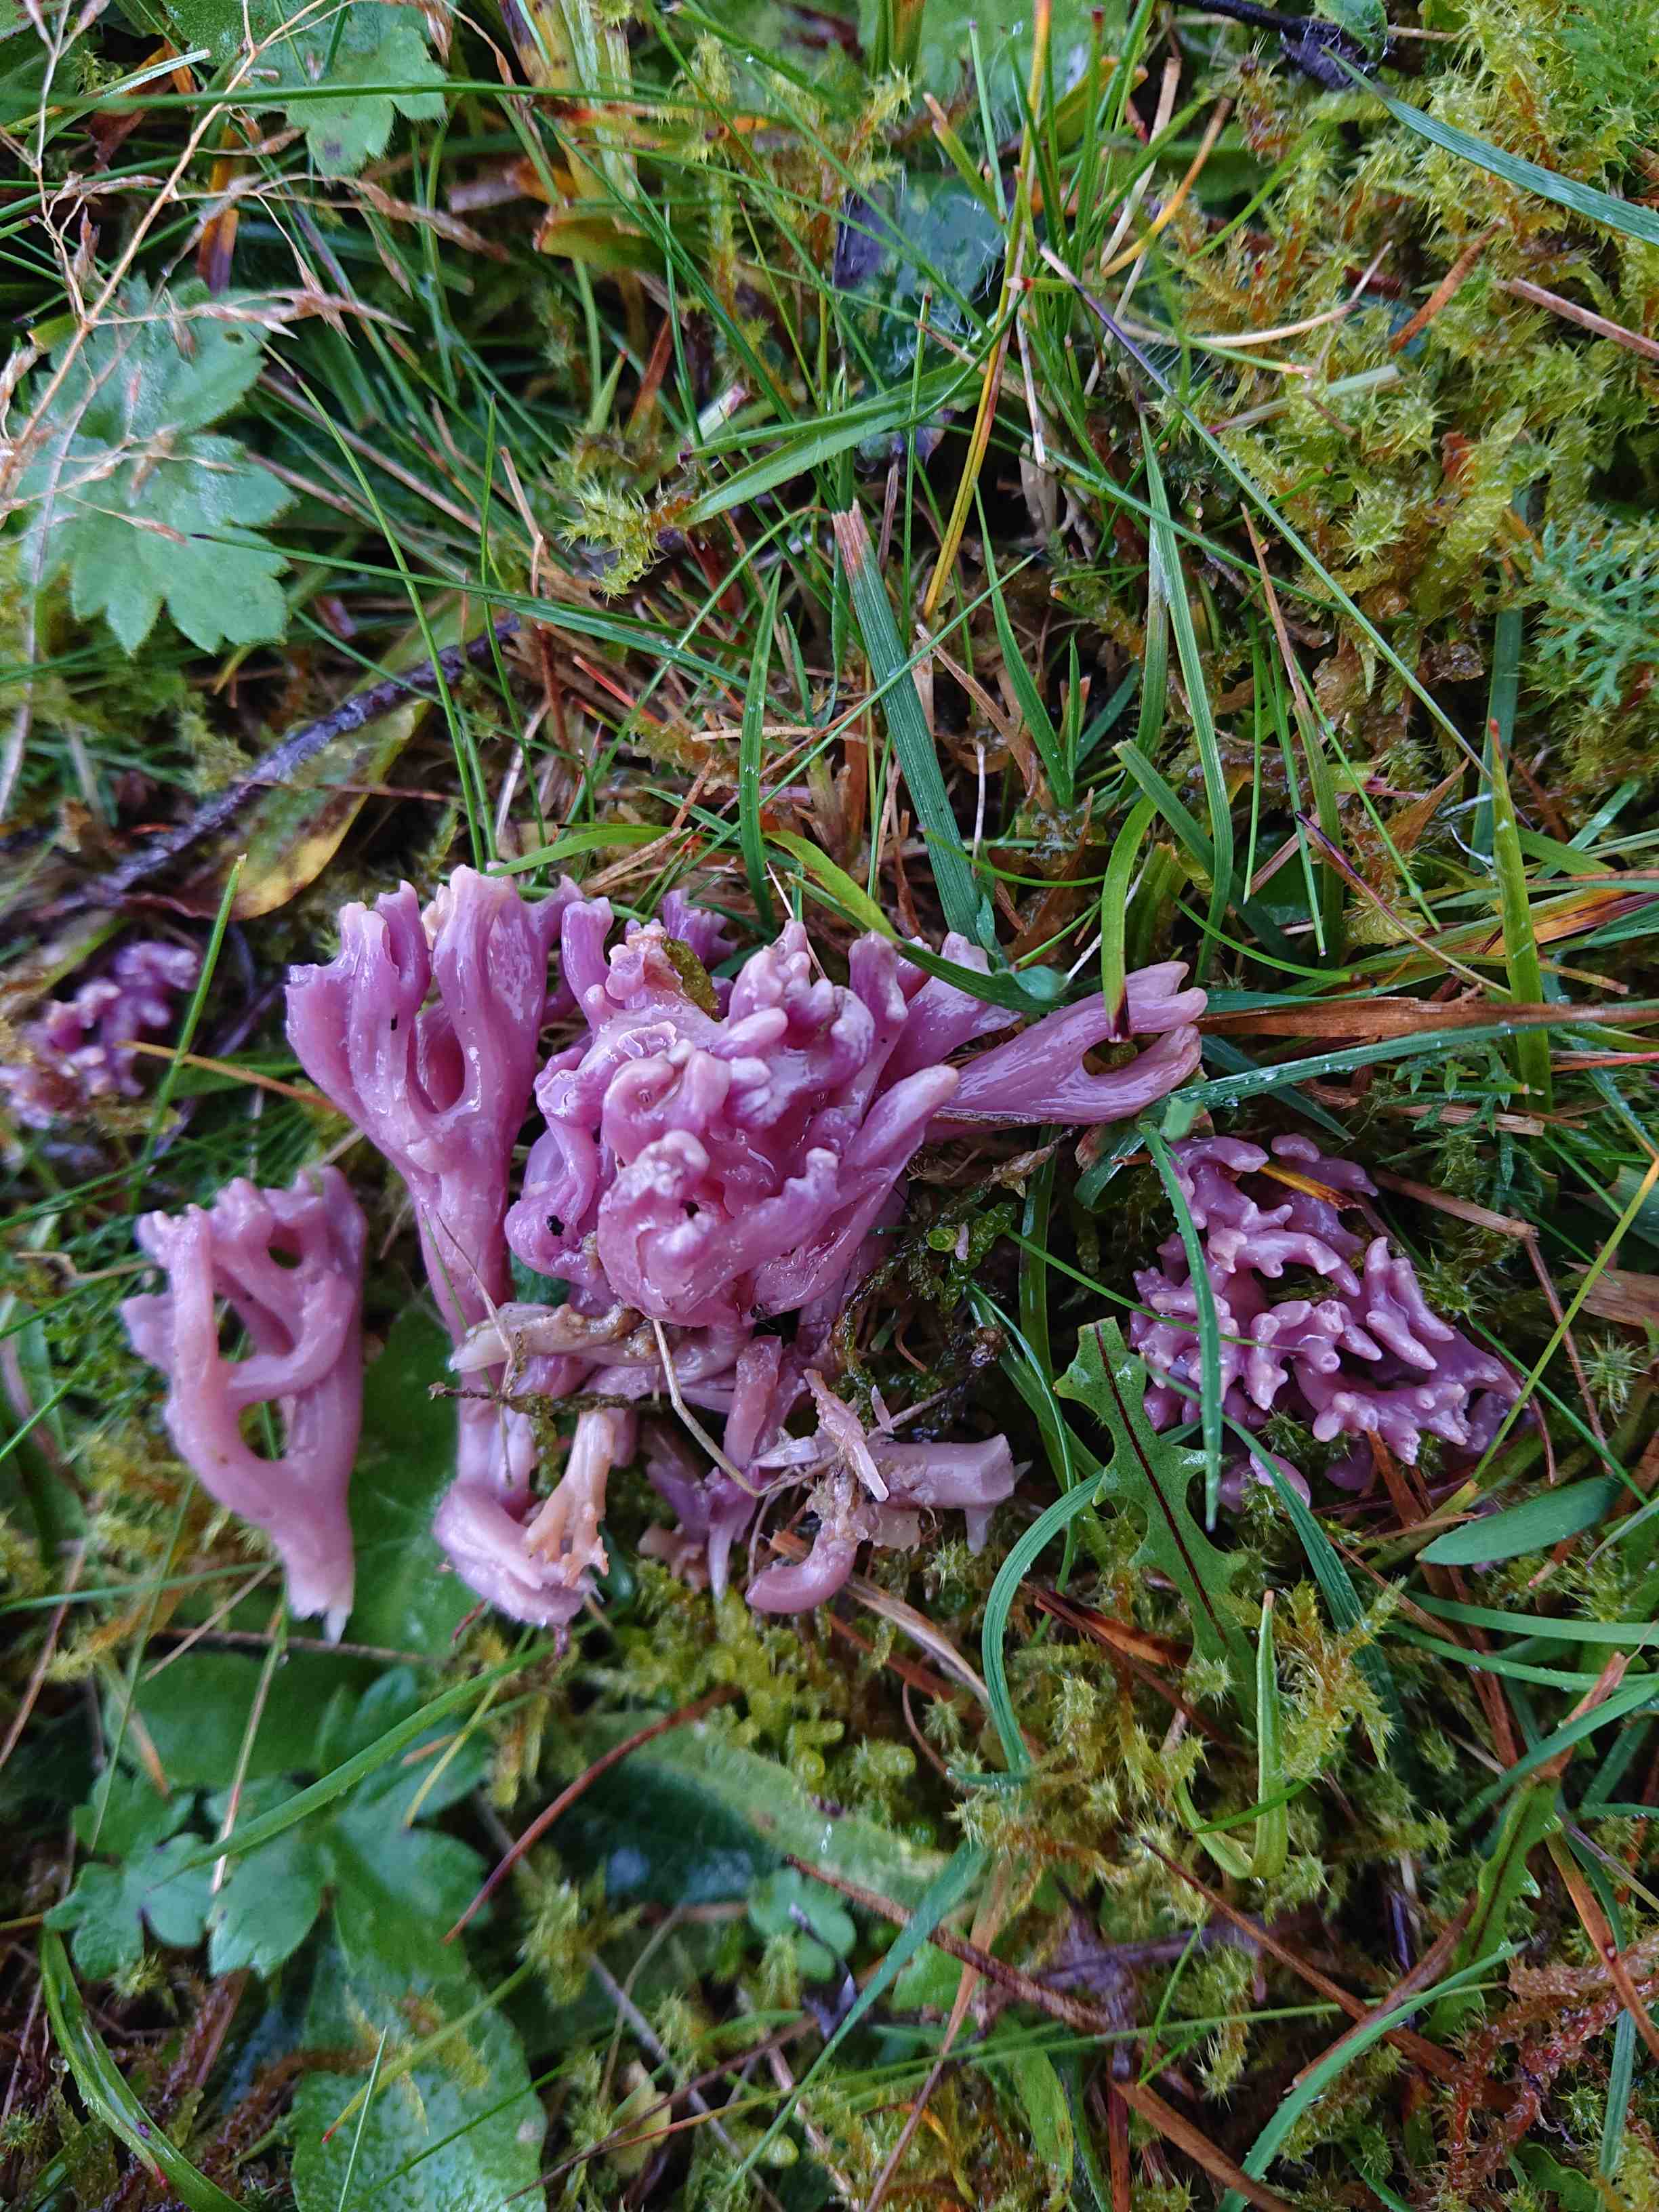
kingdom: Fungi
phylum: Basidiomycota
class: Agaricomycetes
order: Agaricales
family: Clavariaceae
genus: Clavaria
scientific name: Clavaria zollingeri
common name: purpur-køllesvamp
